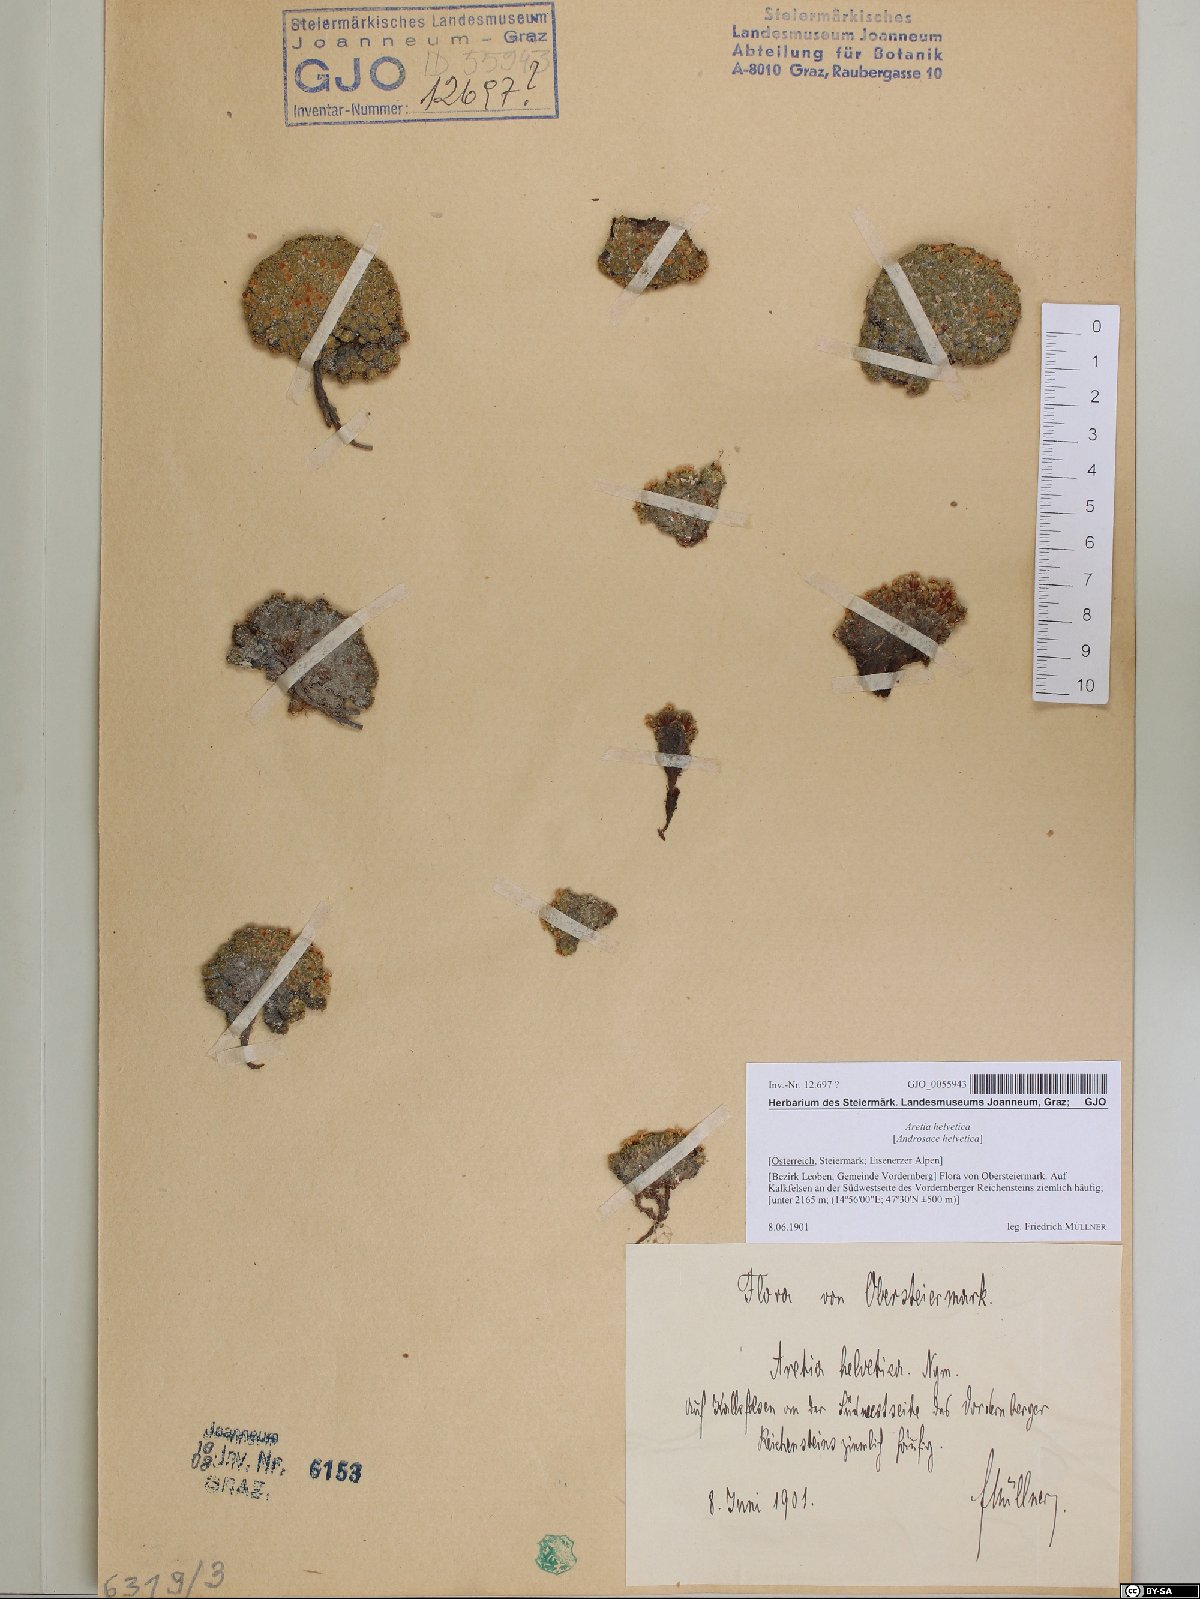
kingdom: Plantae
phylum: Tracheophyta
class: Magnoliopsida
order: Ericales
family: Primulaceae
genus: Androsace
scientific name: Androsace helvetica
